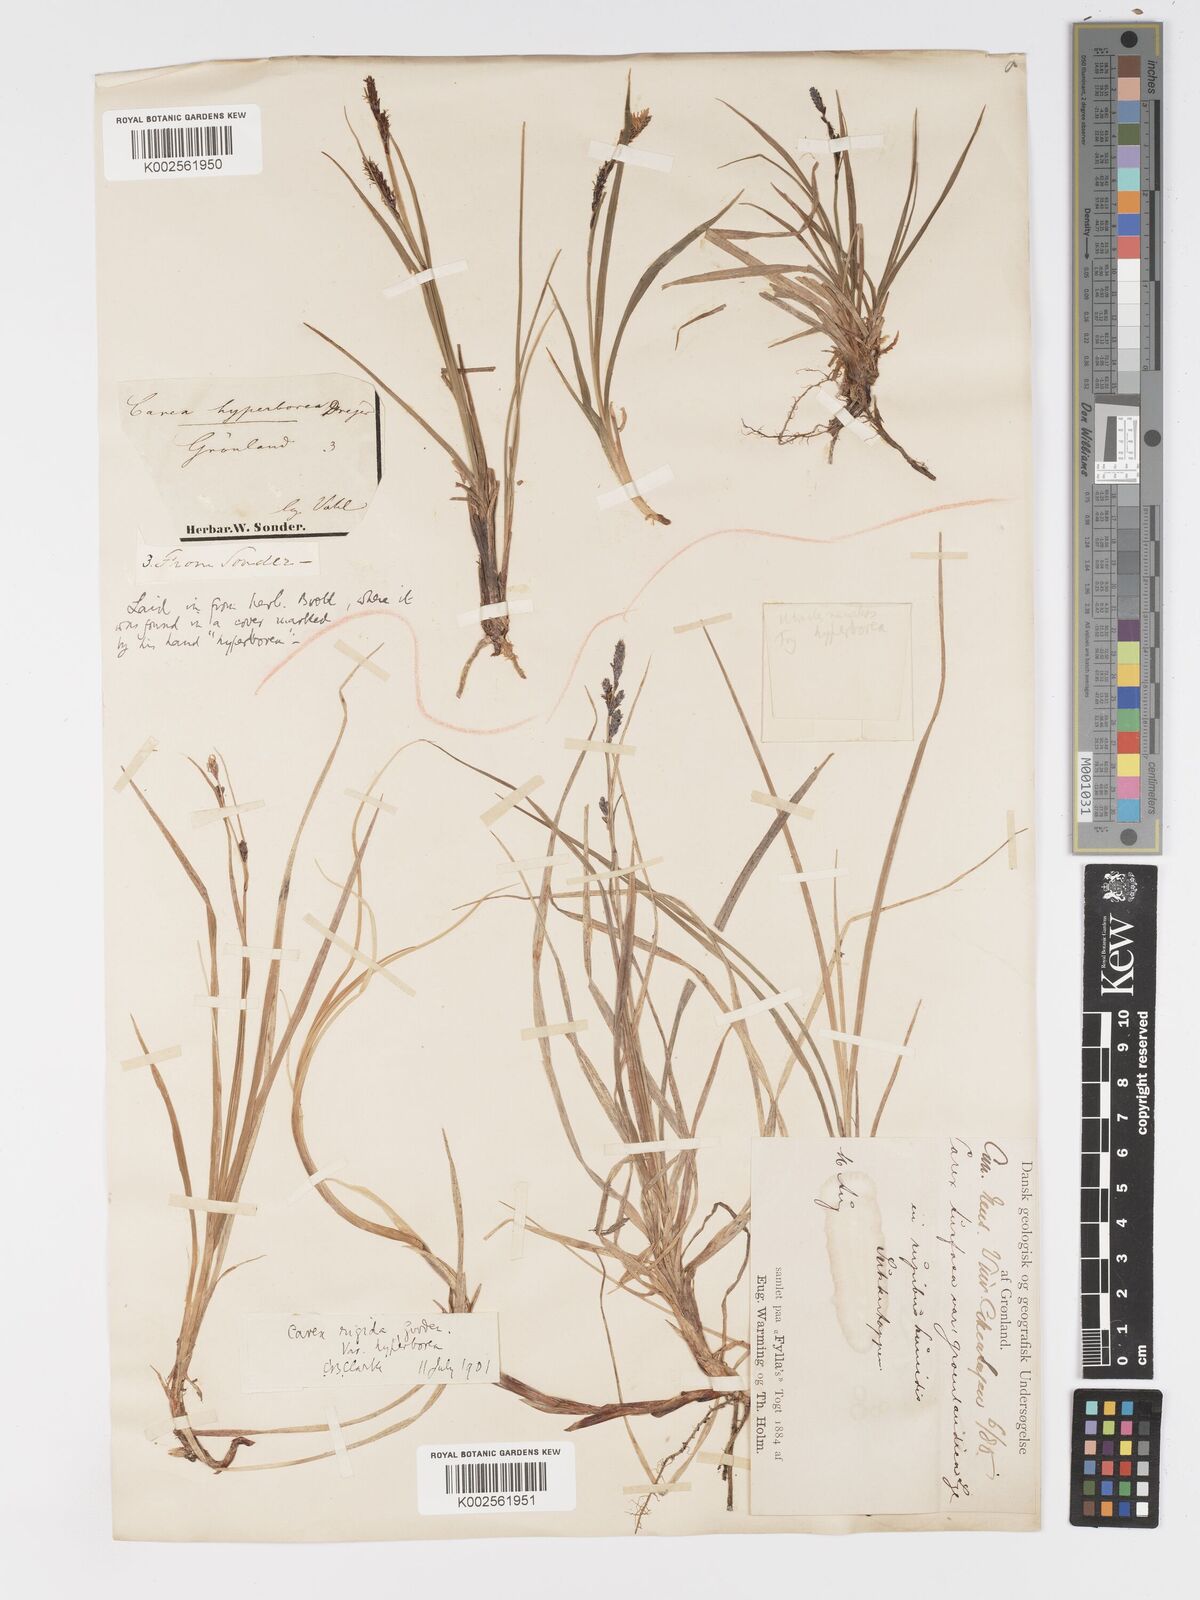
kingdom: Plantae
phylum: Tracheophyta
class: Liliopsida
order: Poales
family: Cyperaceae
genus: Carex
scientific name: Carex bigelowii
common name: Stiff sedge
